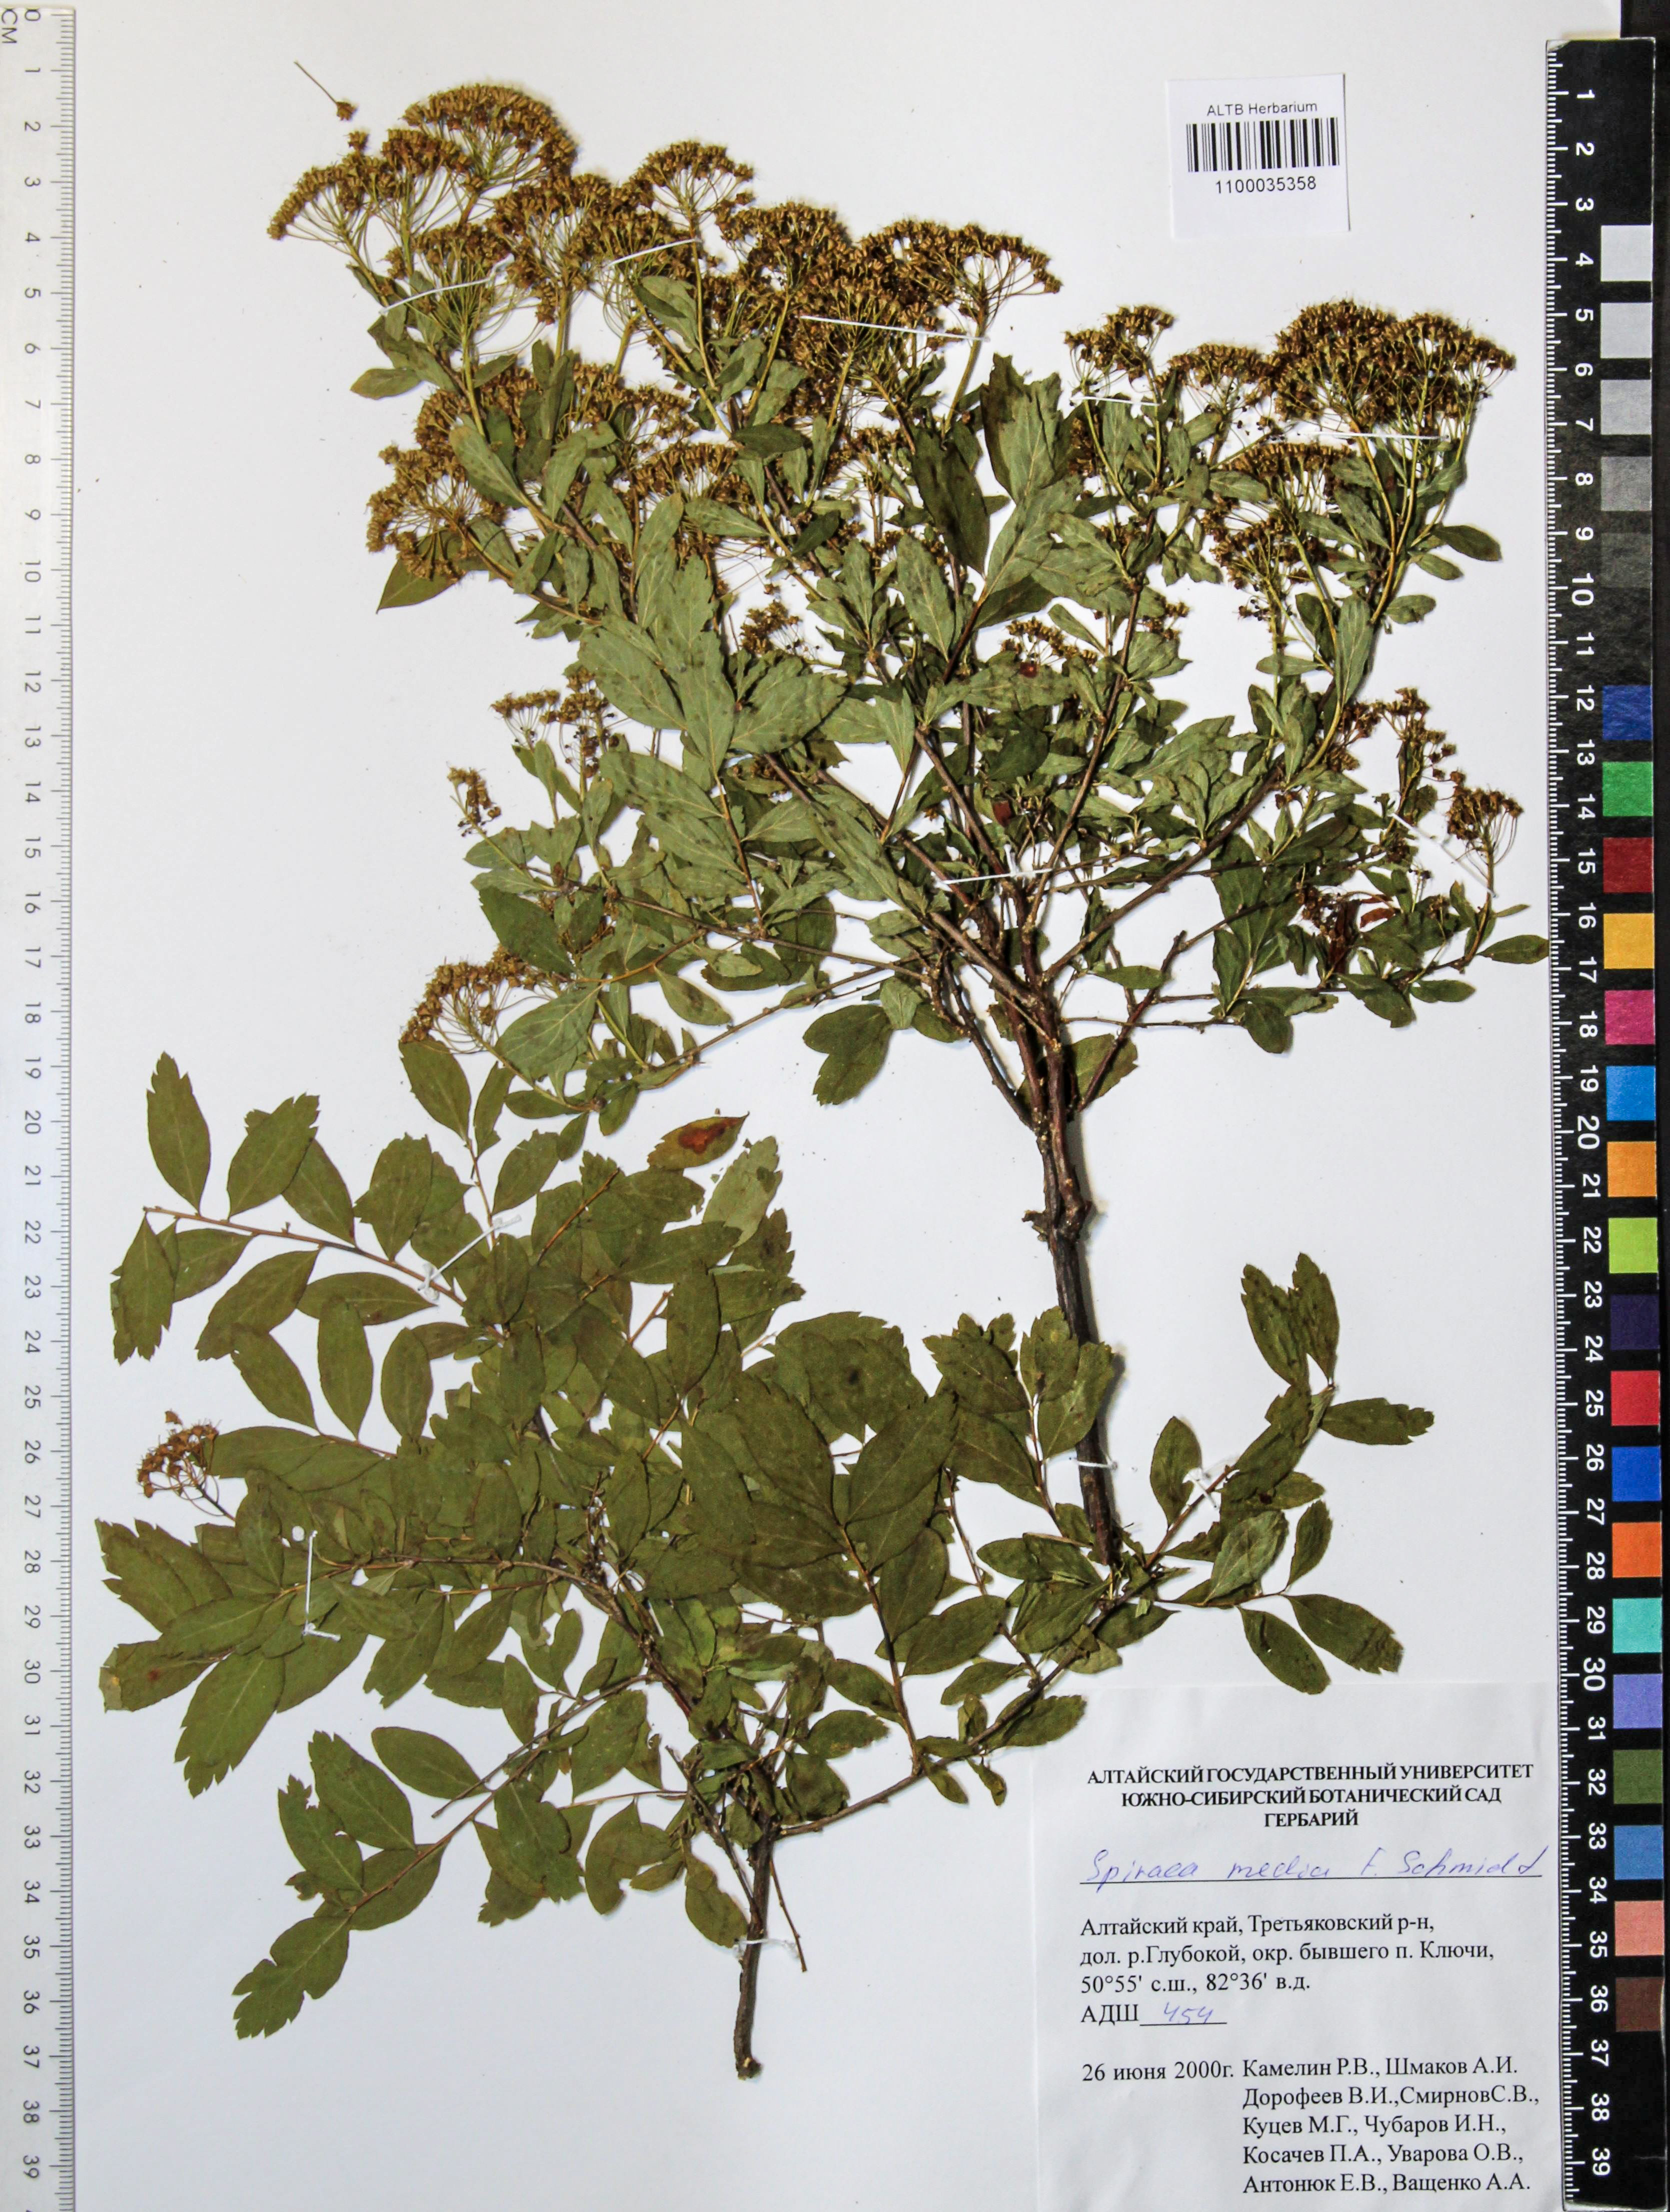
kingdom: Plantae
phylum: Tracheophyta
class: Magnoliopsida
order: Rosales
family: Rosaceae
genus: Spiraea
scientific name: Spiraea media
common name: Russian spiraea
